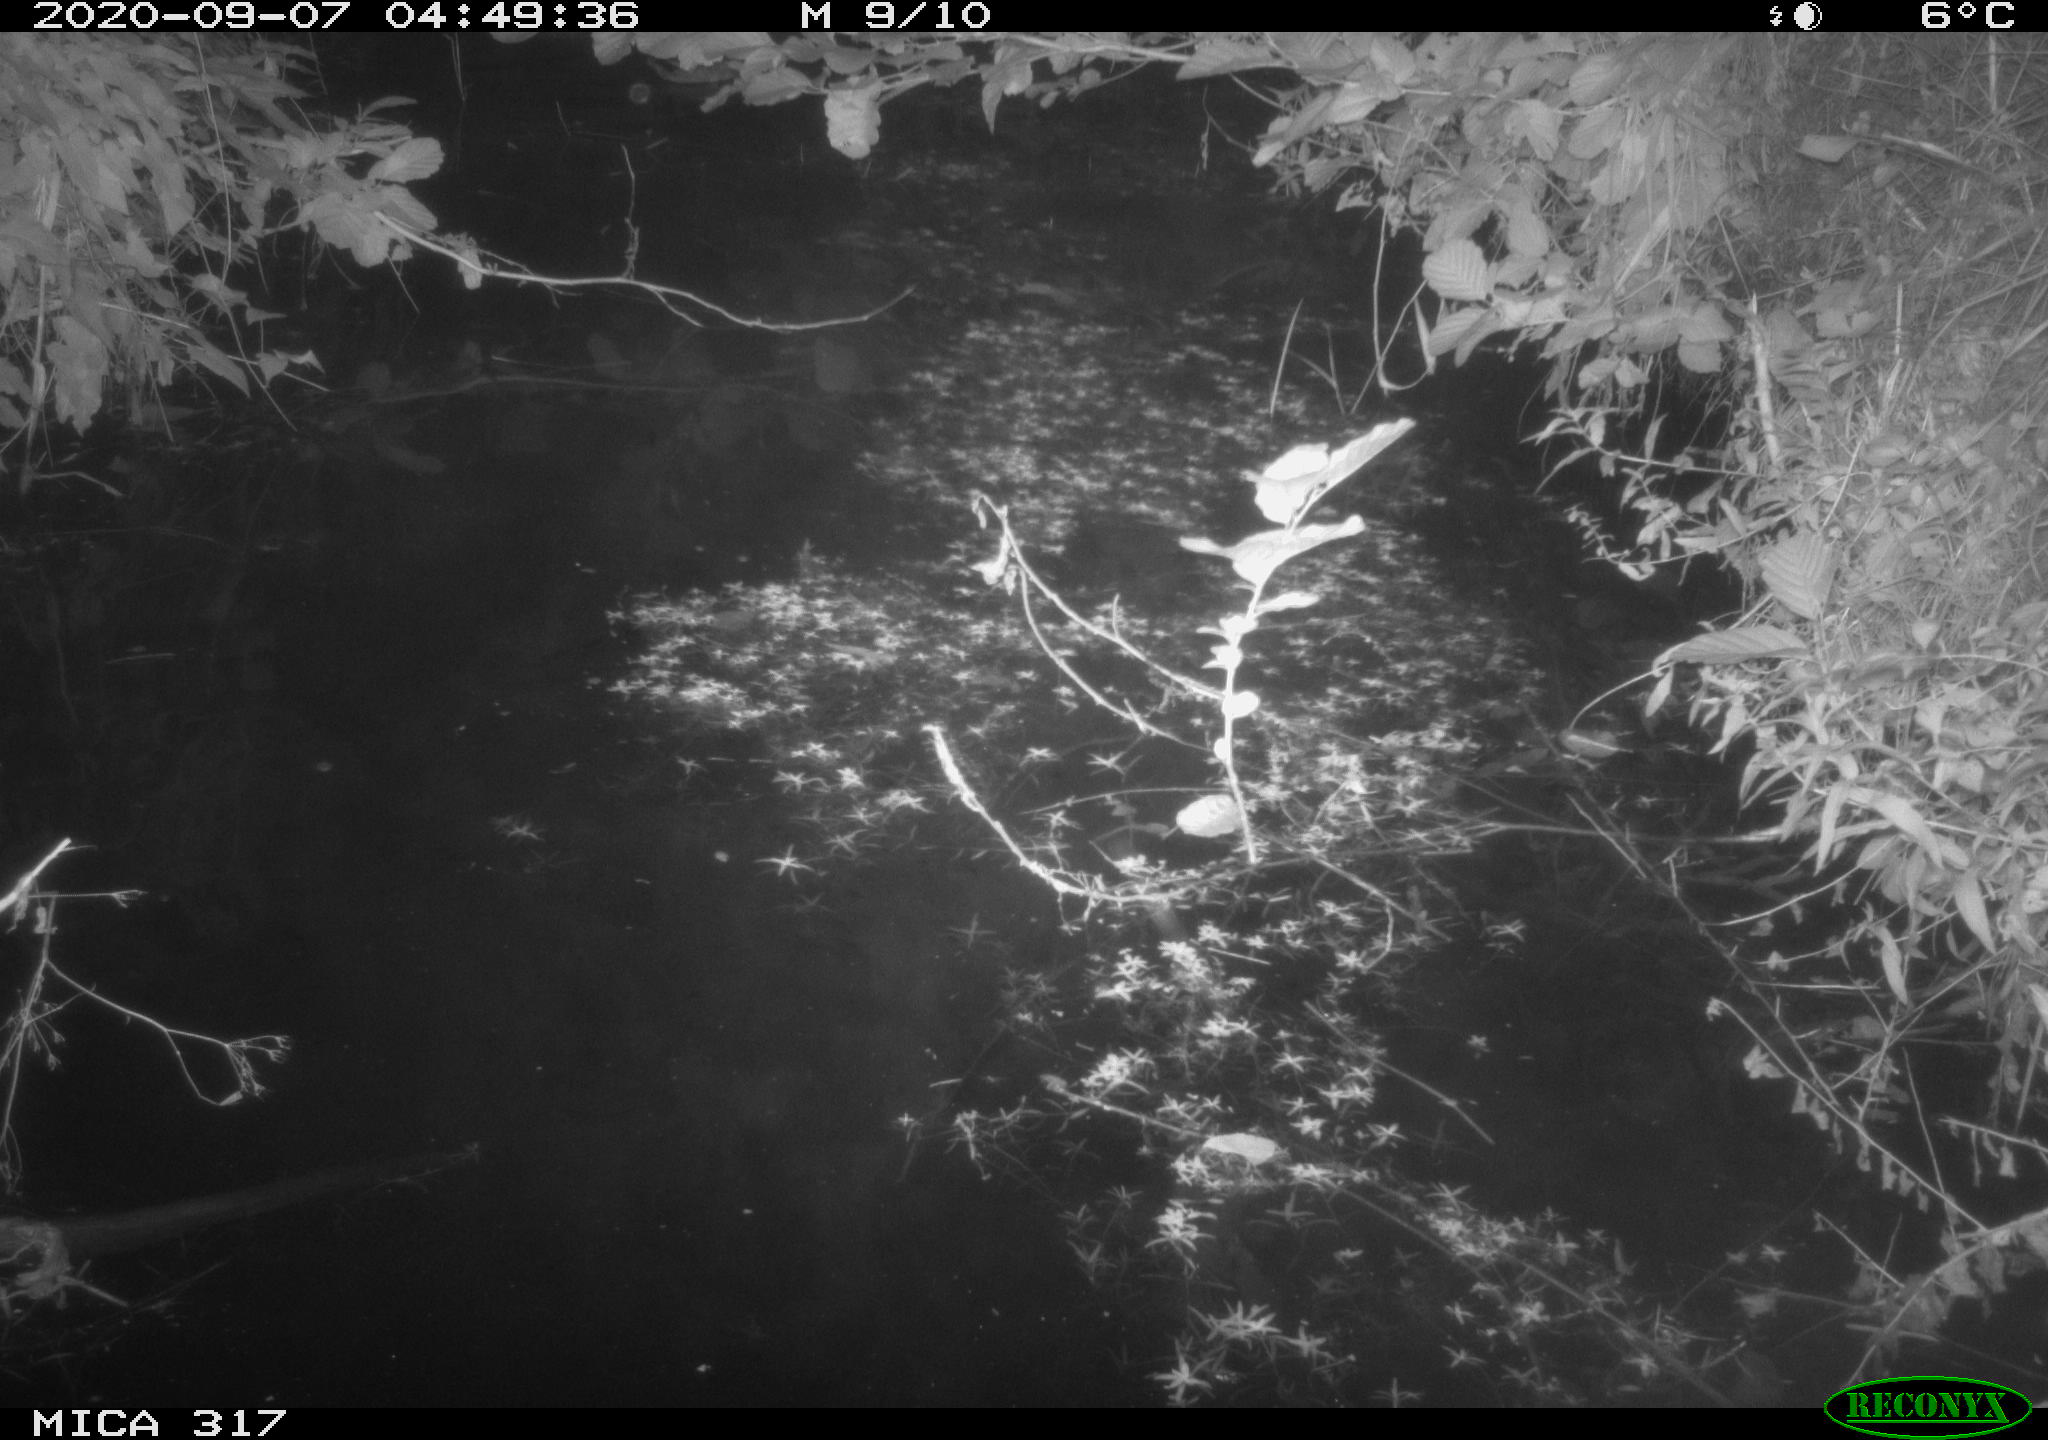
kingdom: Animalia
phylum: Chordata
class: Aves
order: Anseriformes
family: Anatidae
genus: Anas
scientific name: Anas platyrhynchos
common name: Mallard
